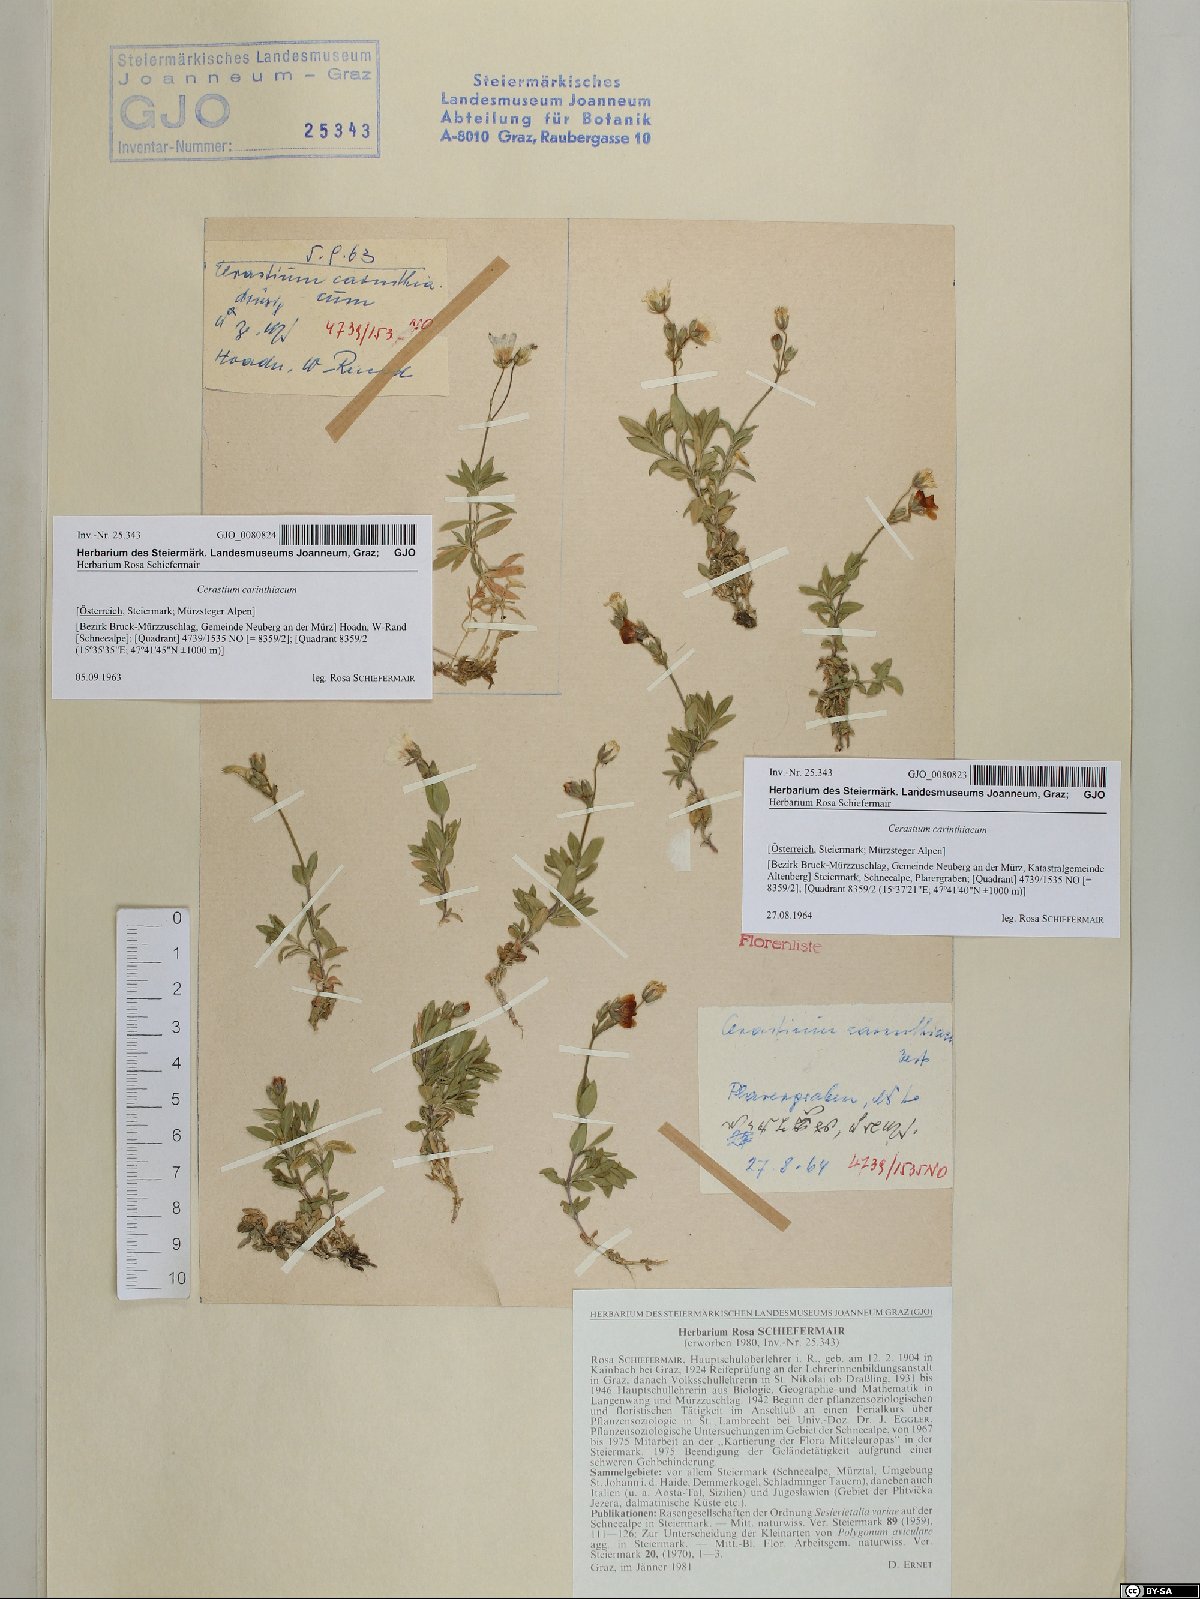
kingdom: Plantae
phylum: Tracheophyta
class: Magnoliopsida
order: Caryophyllales
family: Caryophyllaceae
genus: Cerastium
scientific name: Cerastium carinthiacum
